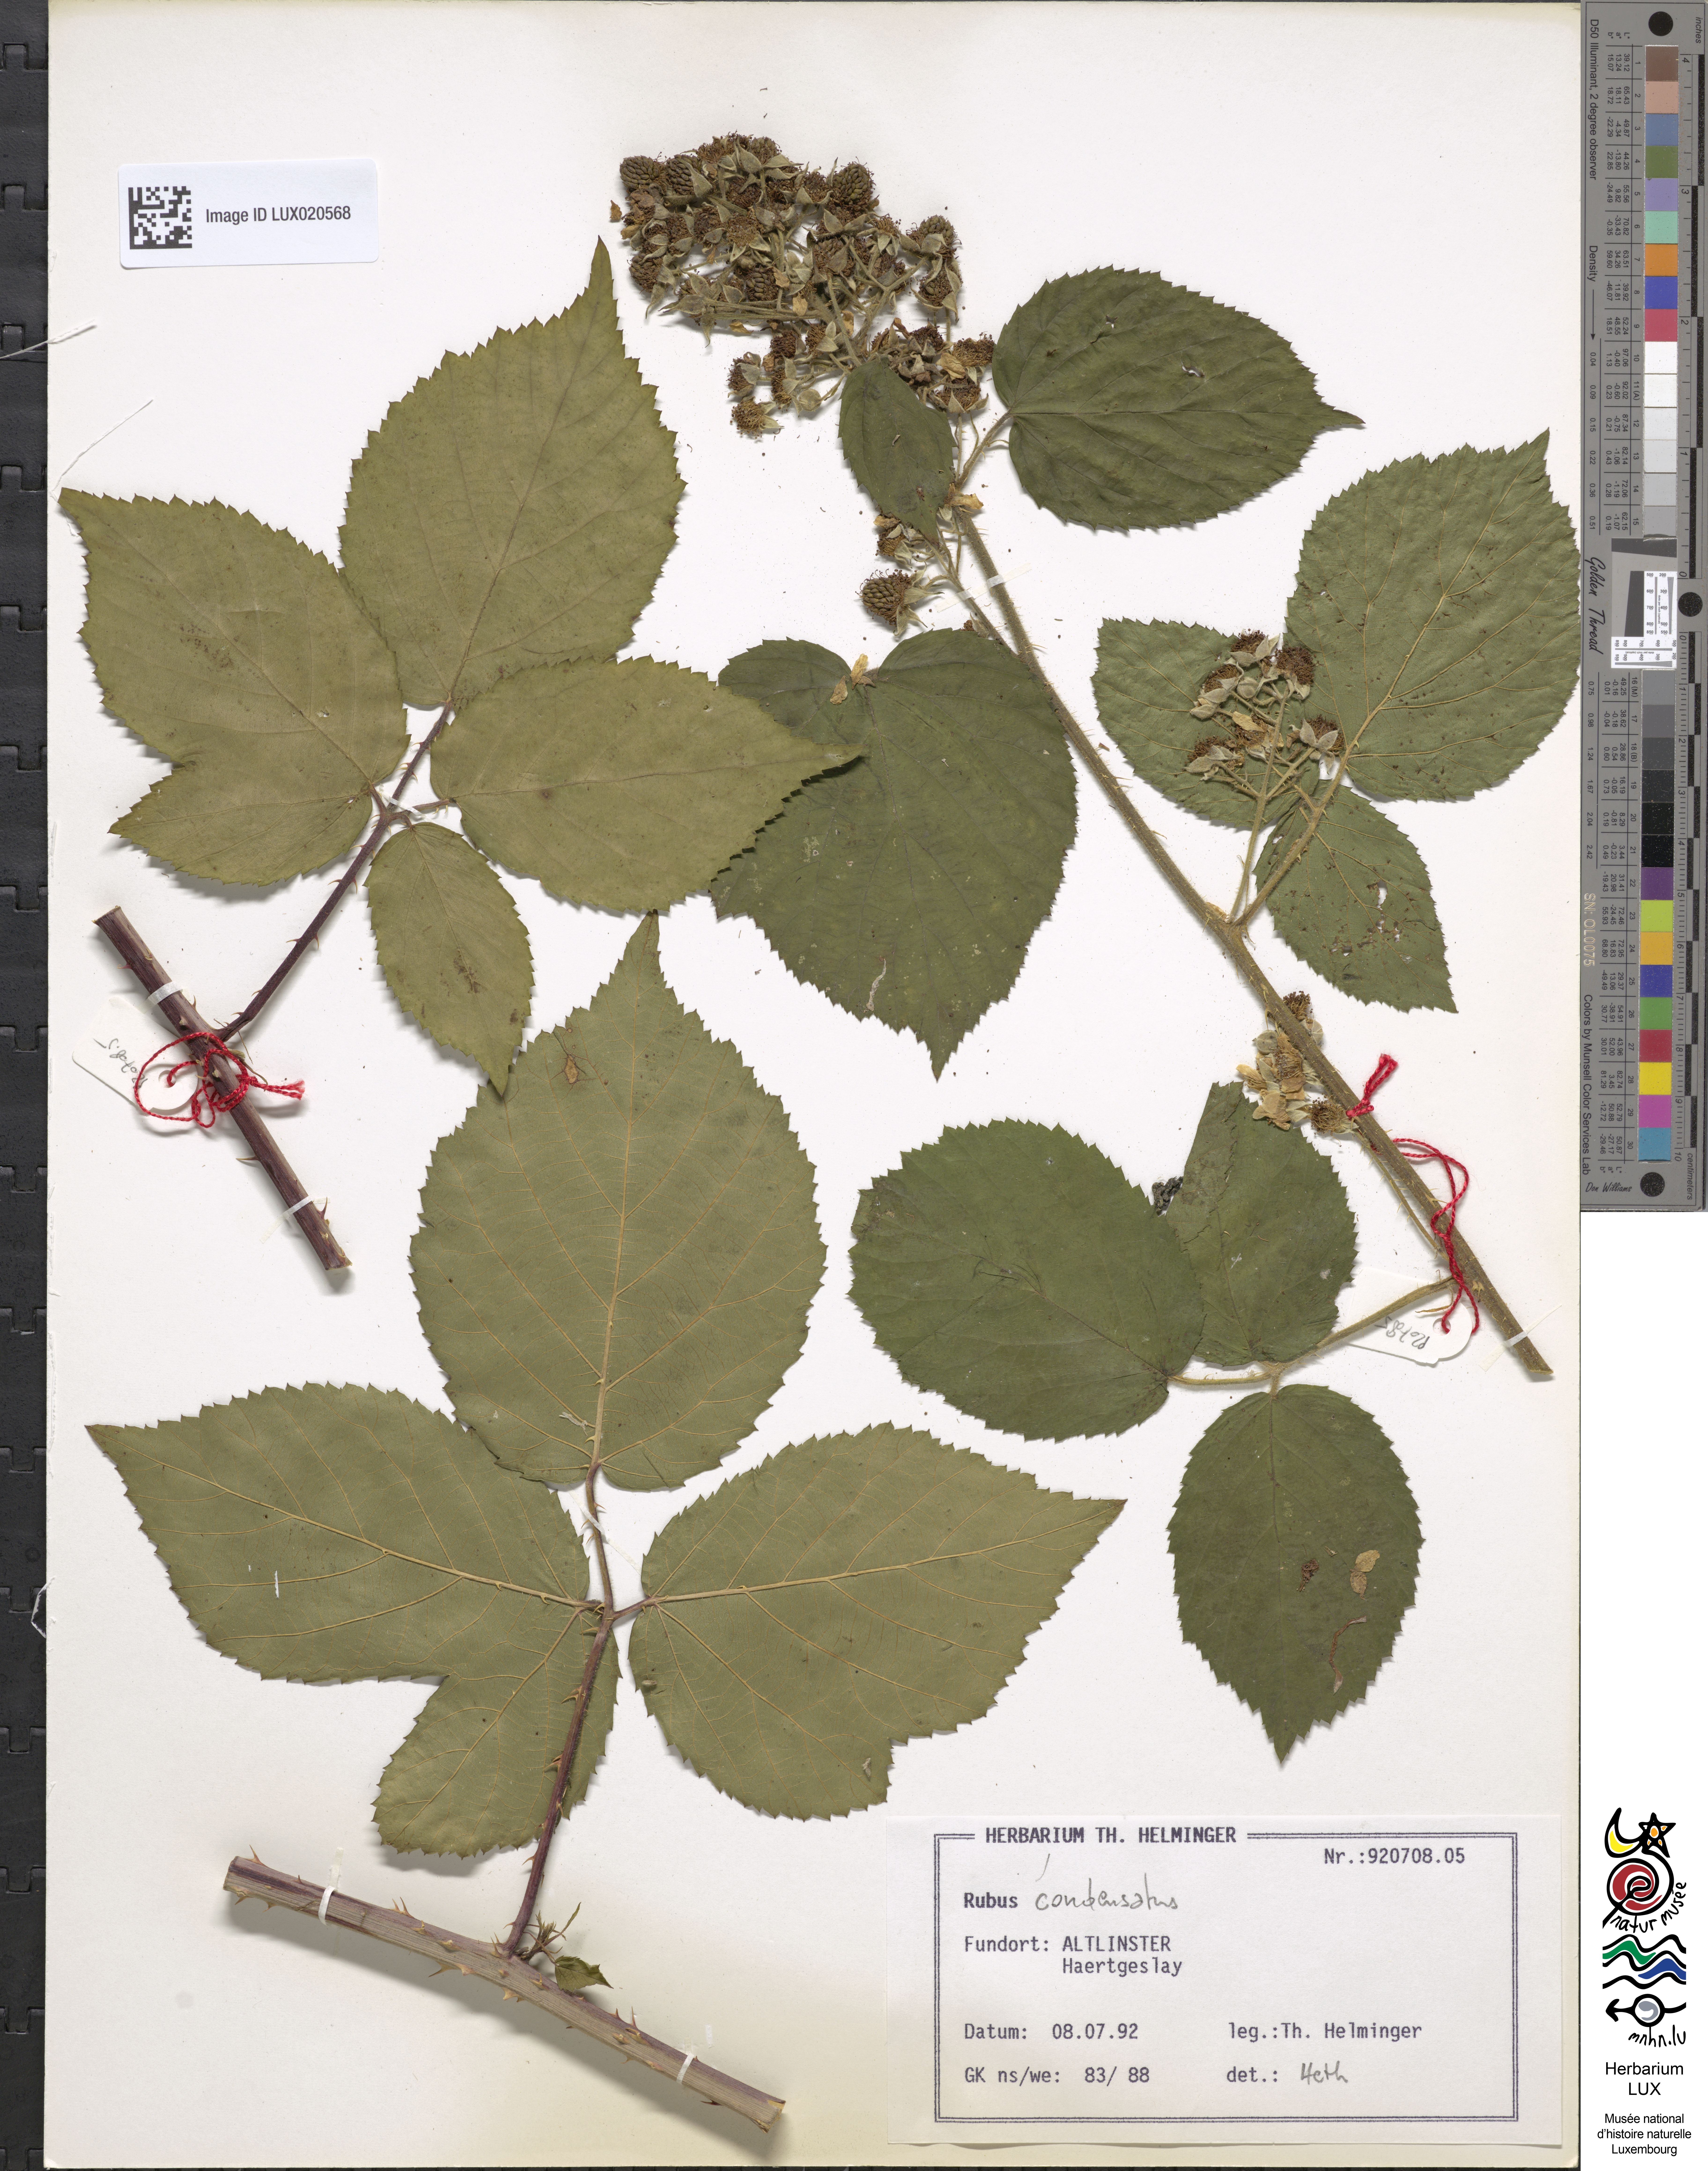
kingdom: Plantae
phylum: Tracheophyta
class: Magnoliopsida
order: Rosales
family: Rosaceae
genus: Rubus
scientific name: Rubus condensatus
